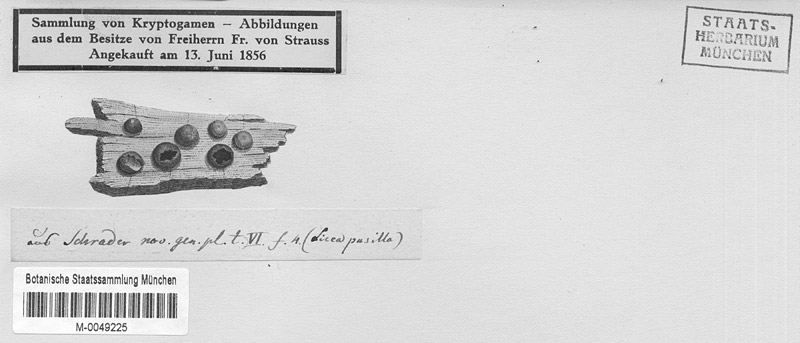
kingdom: Protozoa
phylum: Mycetozoa
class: Myxomycetes
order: Cribrariales
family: Liceaceae
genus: Licea
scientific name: Licea pusilla
